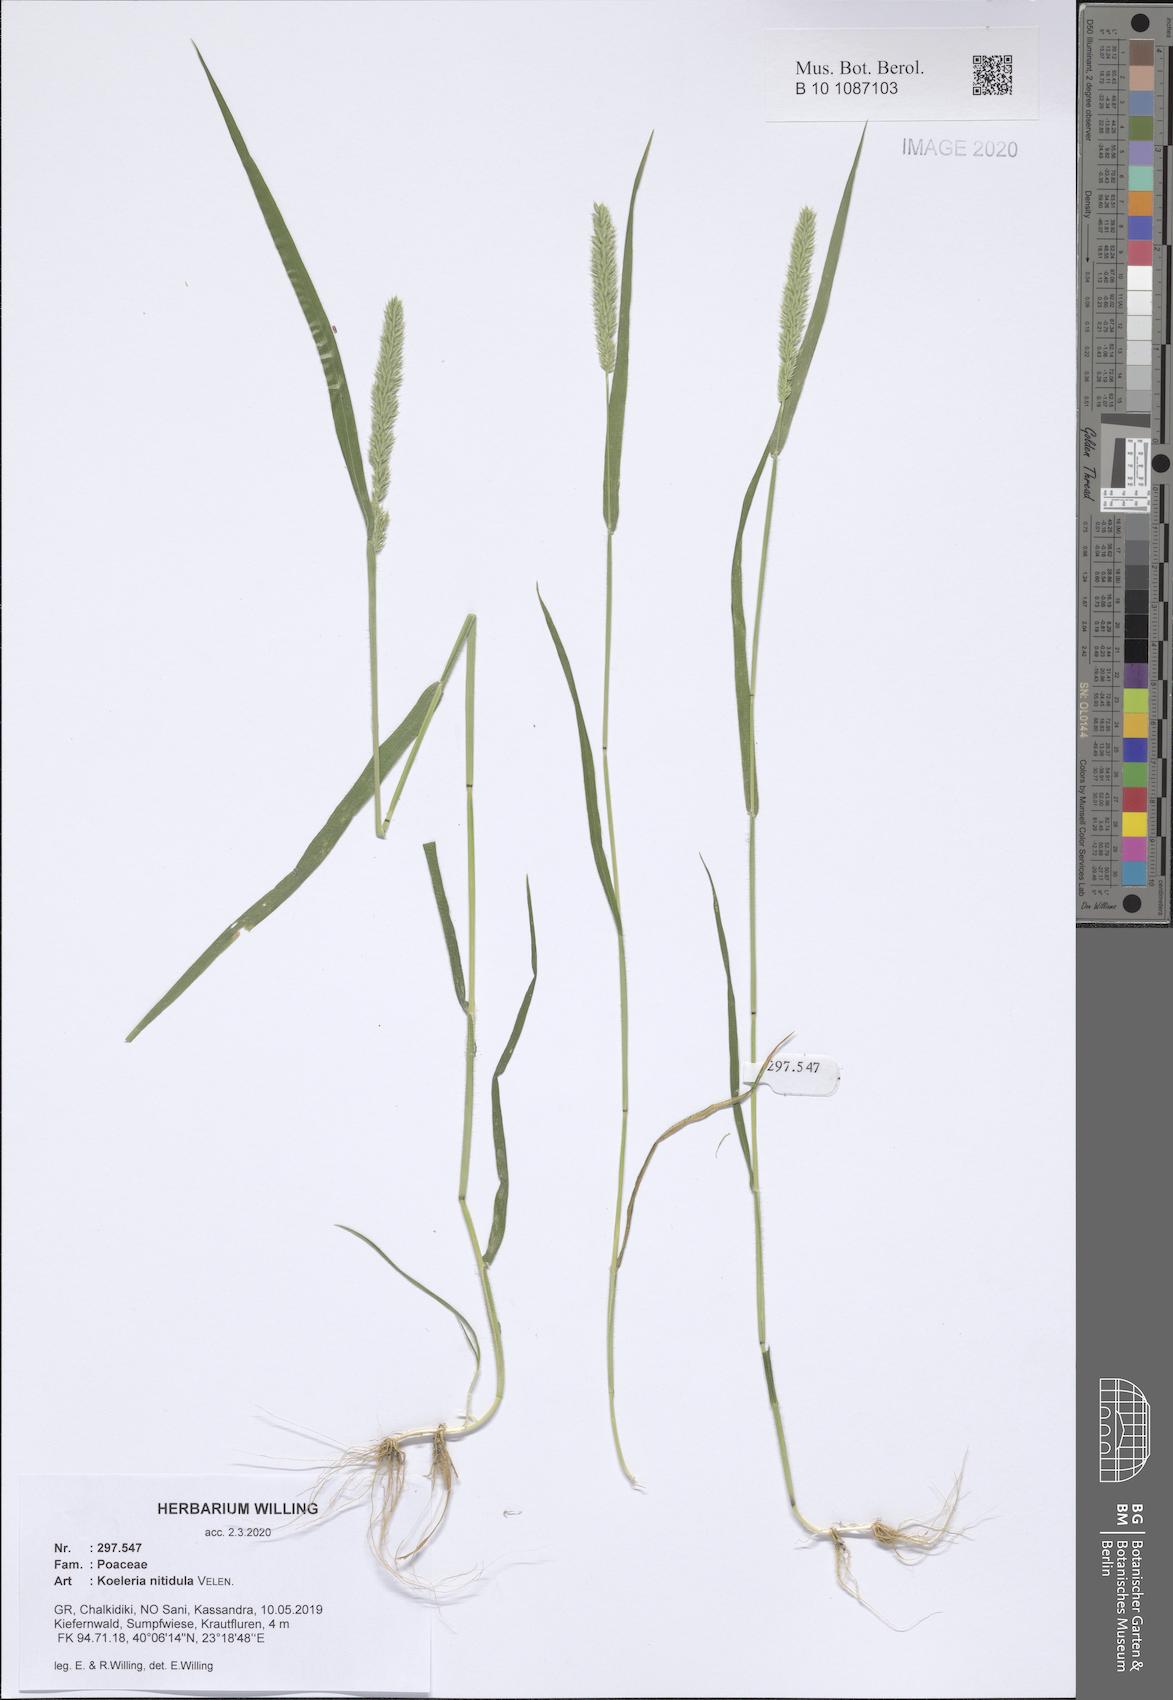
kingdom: Plantae
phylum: Tracheophyta
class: Liliopsida
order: Poales
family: Poaceae
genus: Koeleria
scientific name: Koeleria nitidula
